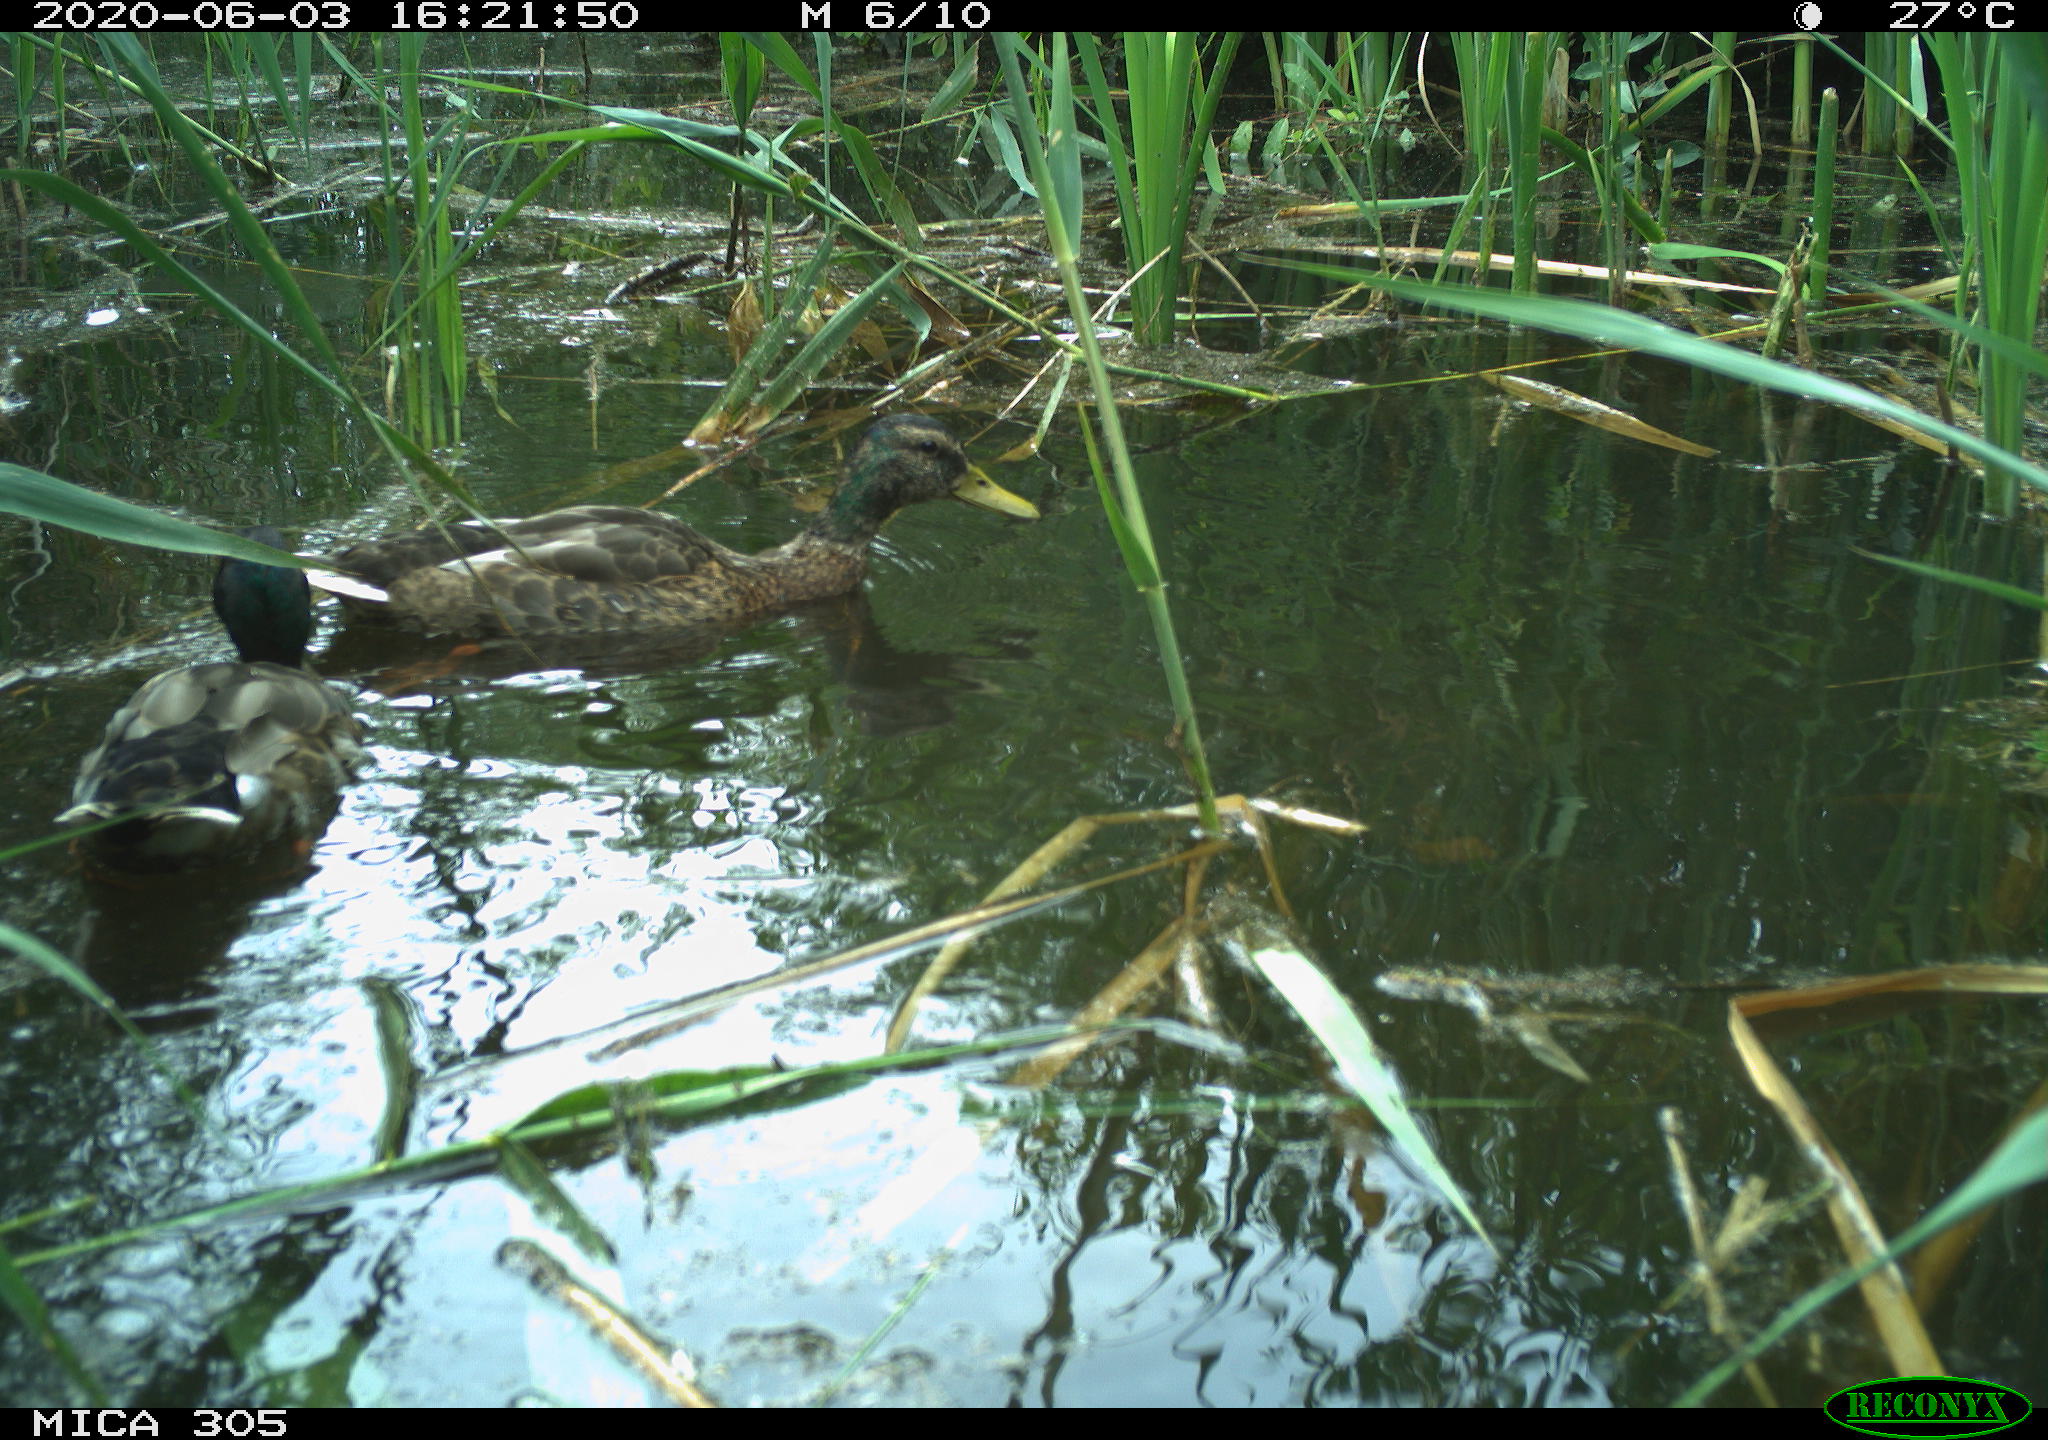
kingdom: Animalia
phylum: Chordata
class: Aves
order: Anseriformes
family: Anatidae
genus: Anas
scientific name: Anas platyrhynchos
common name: Mallard
